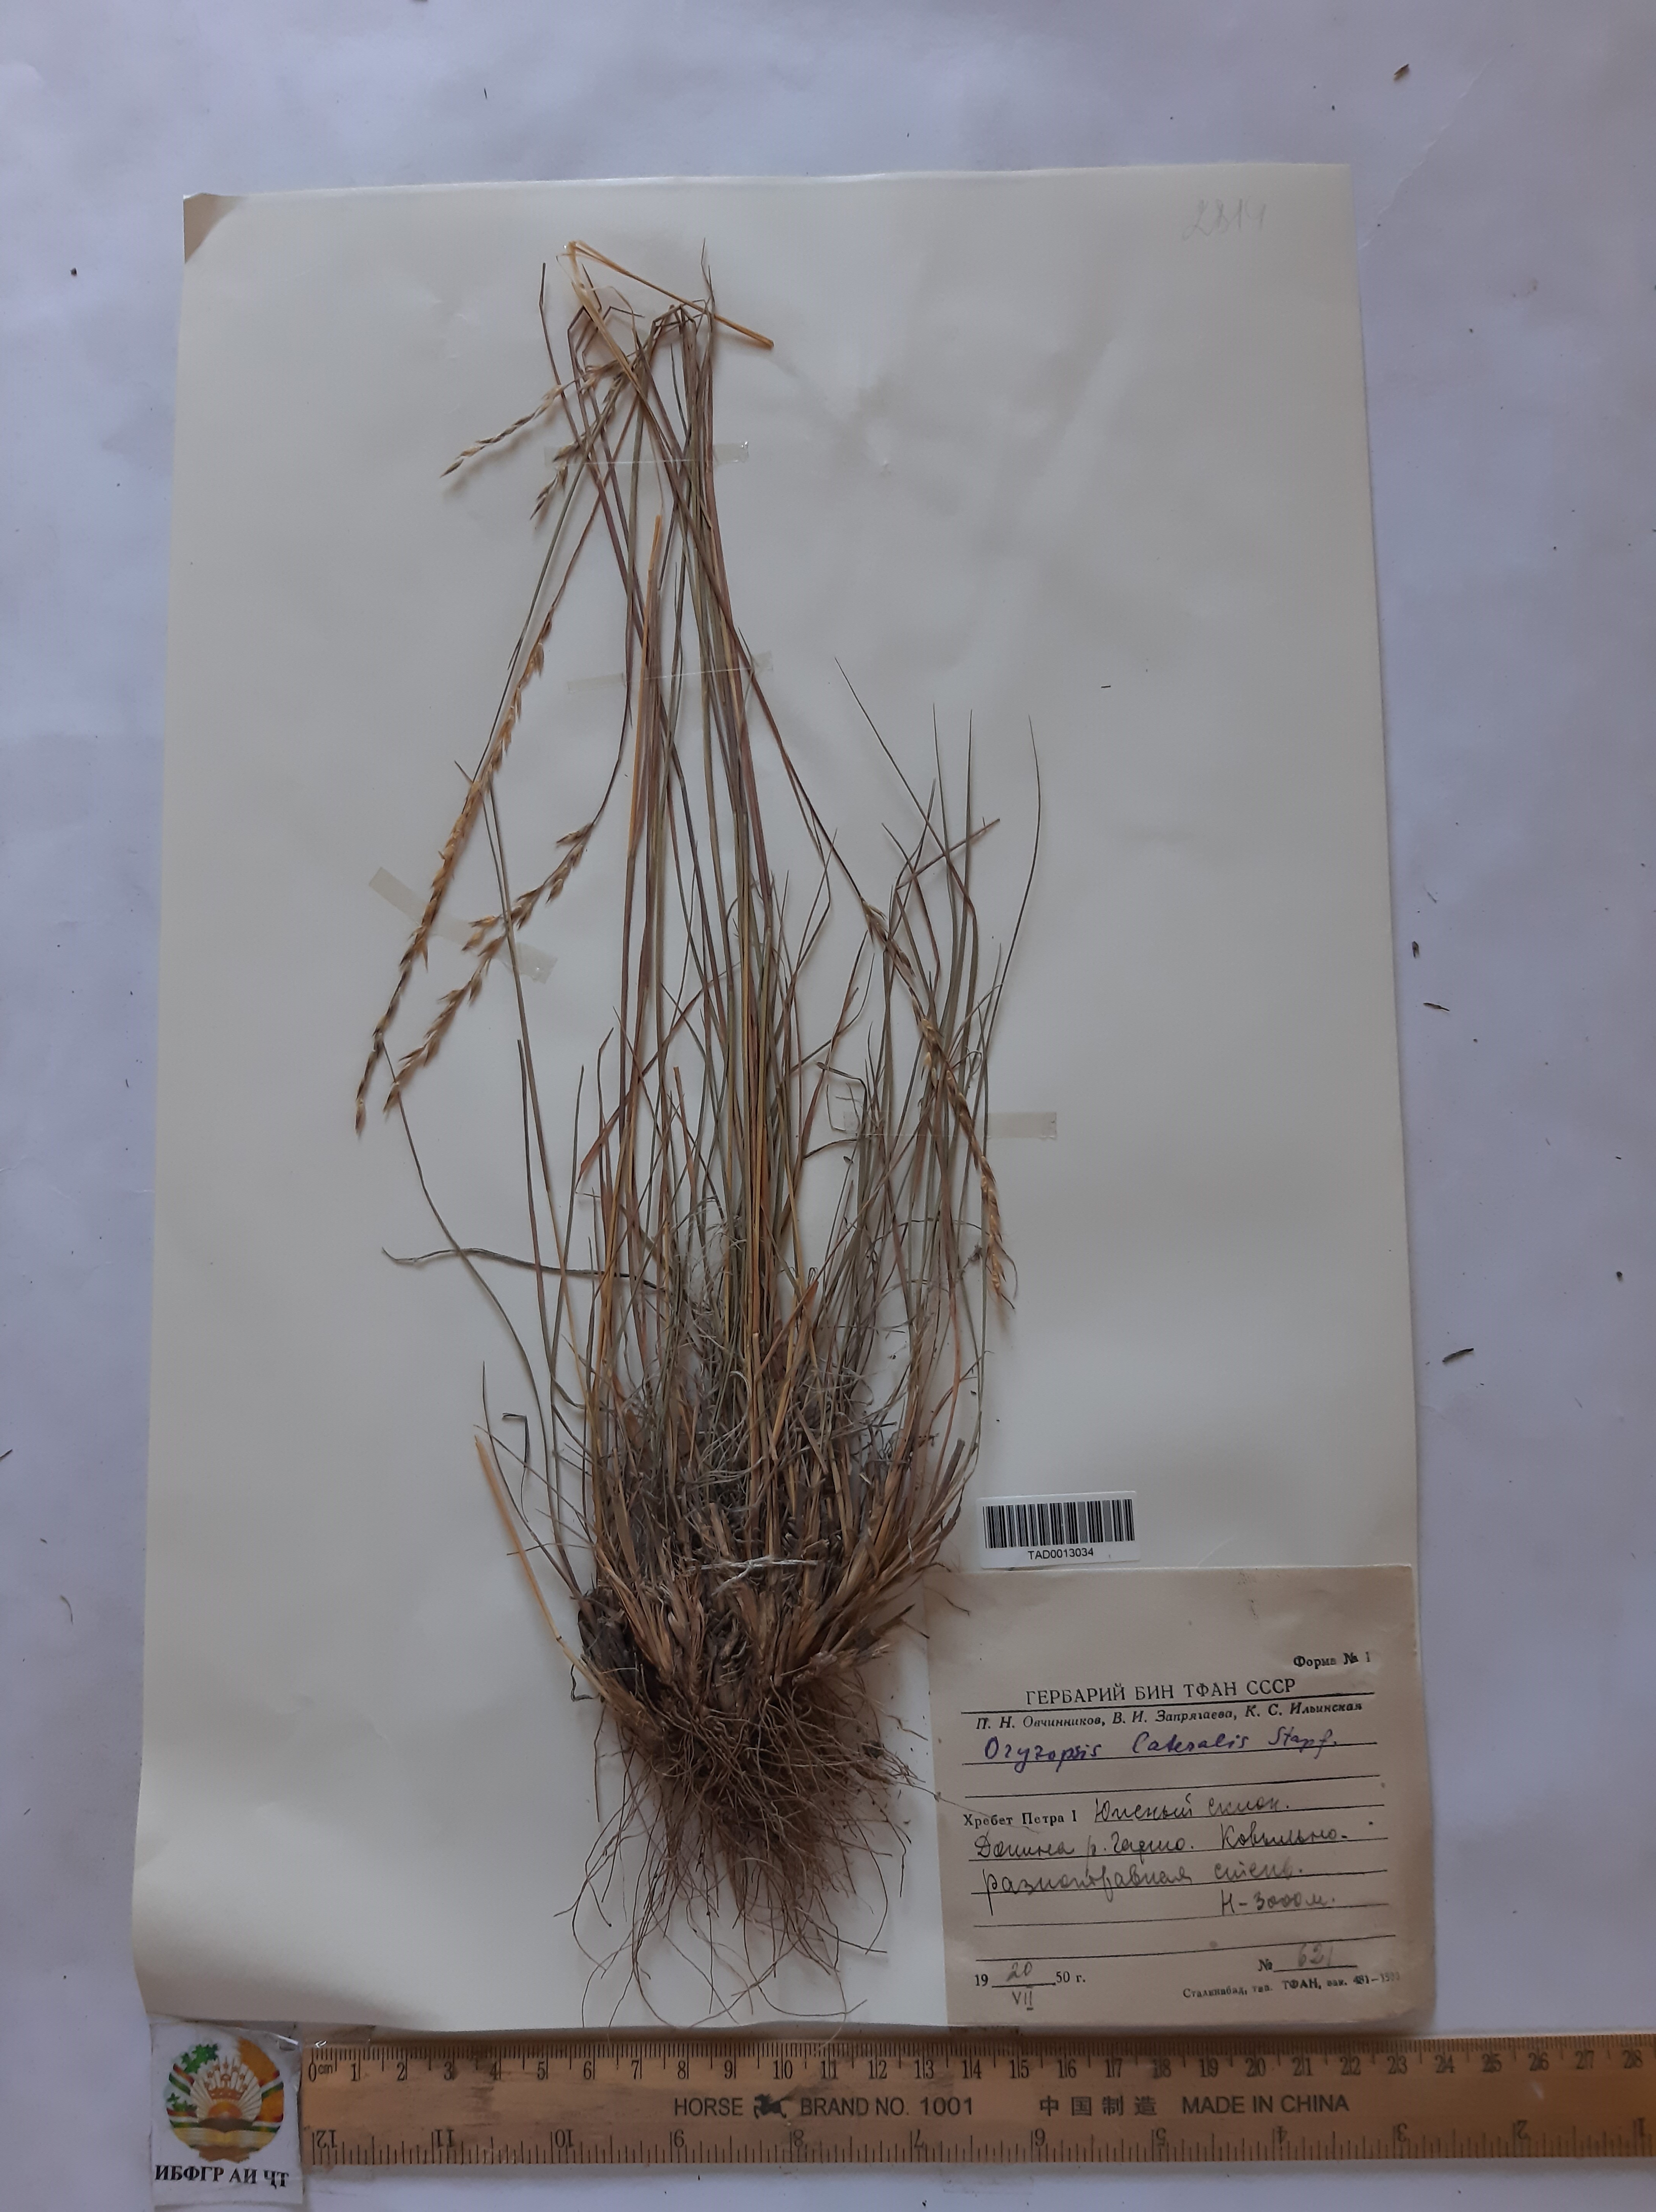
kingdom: Plantae
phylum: Tracheophyta
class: Liliopsida
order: Poales
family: Poaceae
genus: Piptatherum
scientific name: Piptatherum laterale
